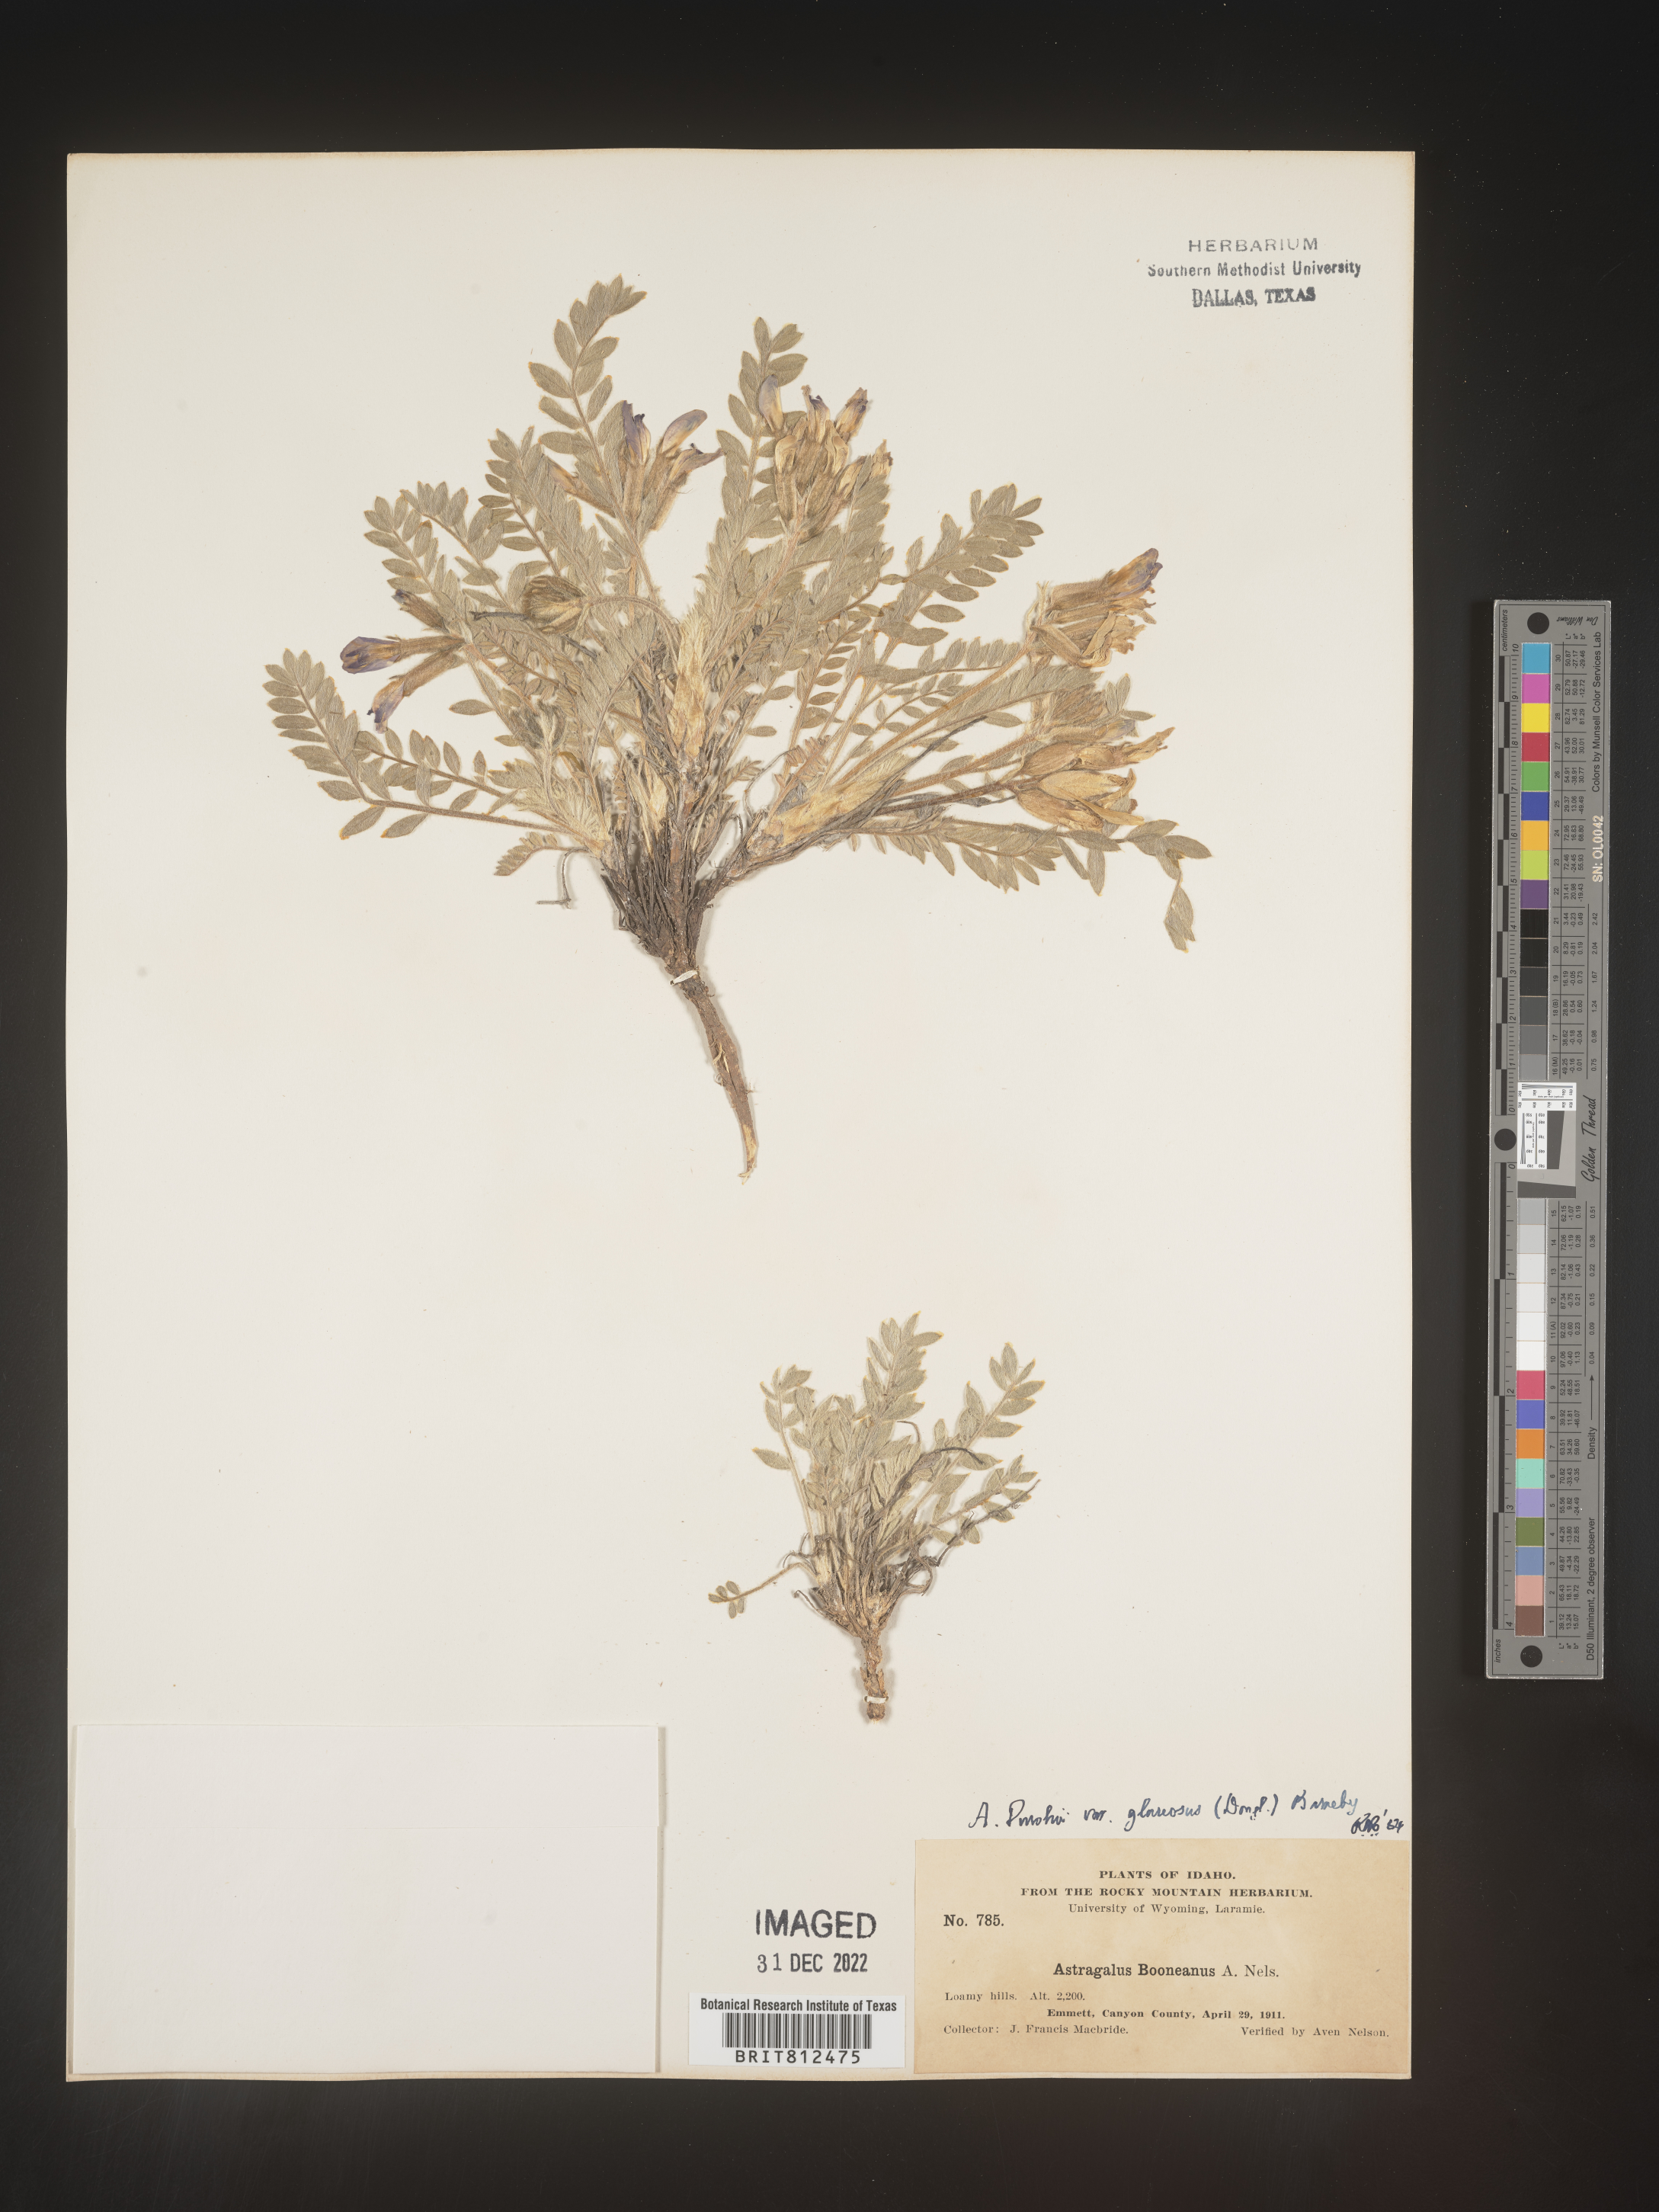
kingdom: Plantae
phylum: Tracheophyta
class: Magnoliopsida
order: Fabales
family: Fabaceae
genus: Astragalus
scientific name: Astragalus leucolobus
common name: Big bear valley woollypod
